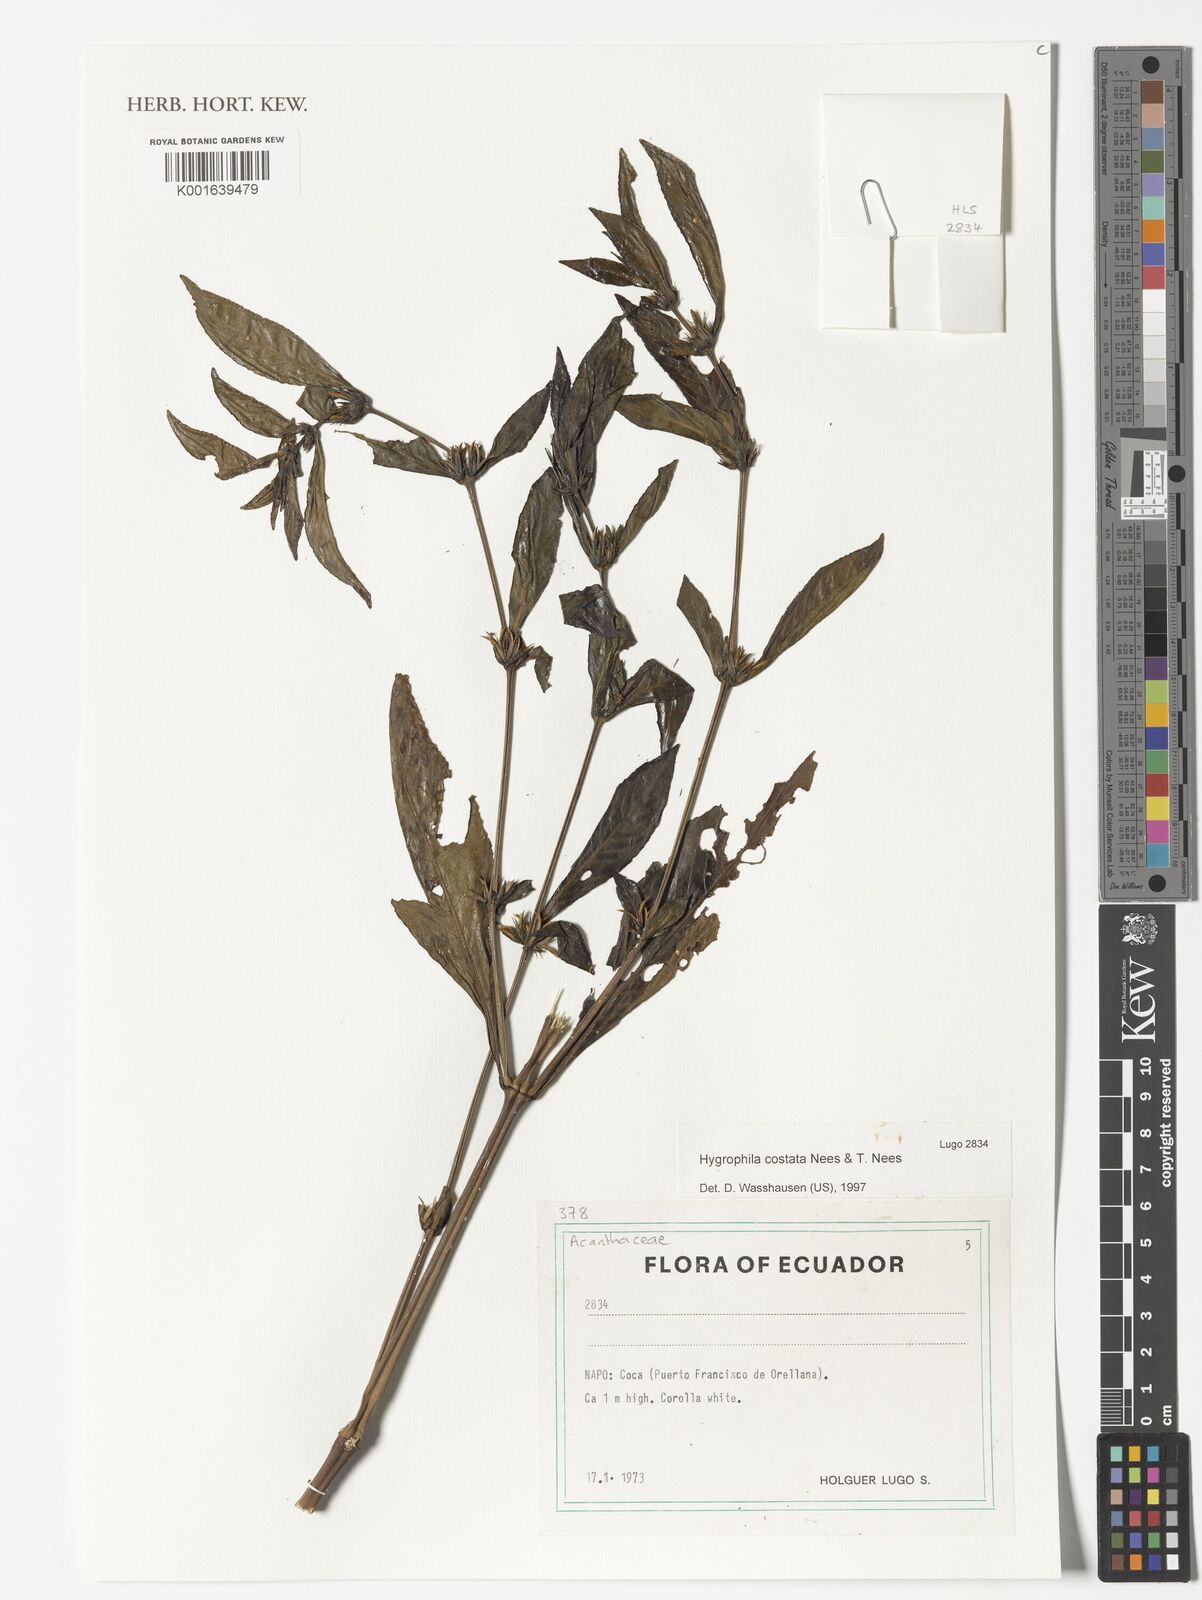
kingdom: Plantae
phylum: Tracheophyta
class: Magnoliopsida
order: Lamiales
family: Acanthaceae
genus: Hygrophila
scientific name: Hygrophila costata
